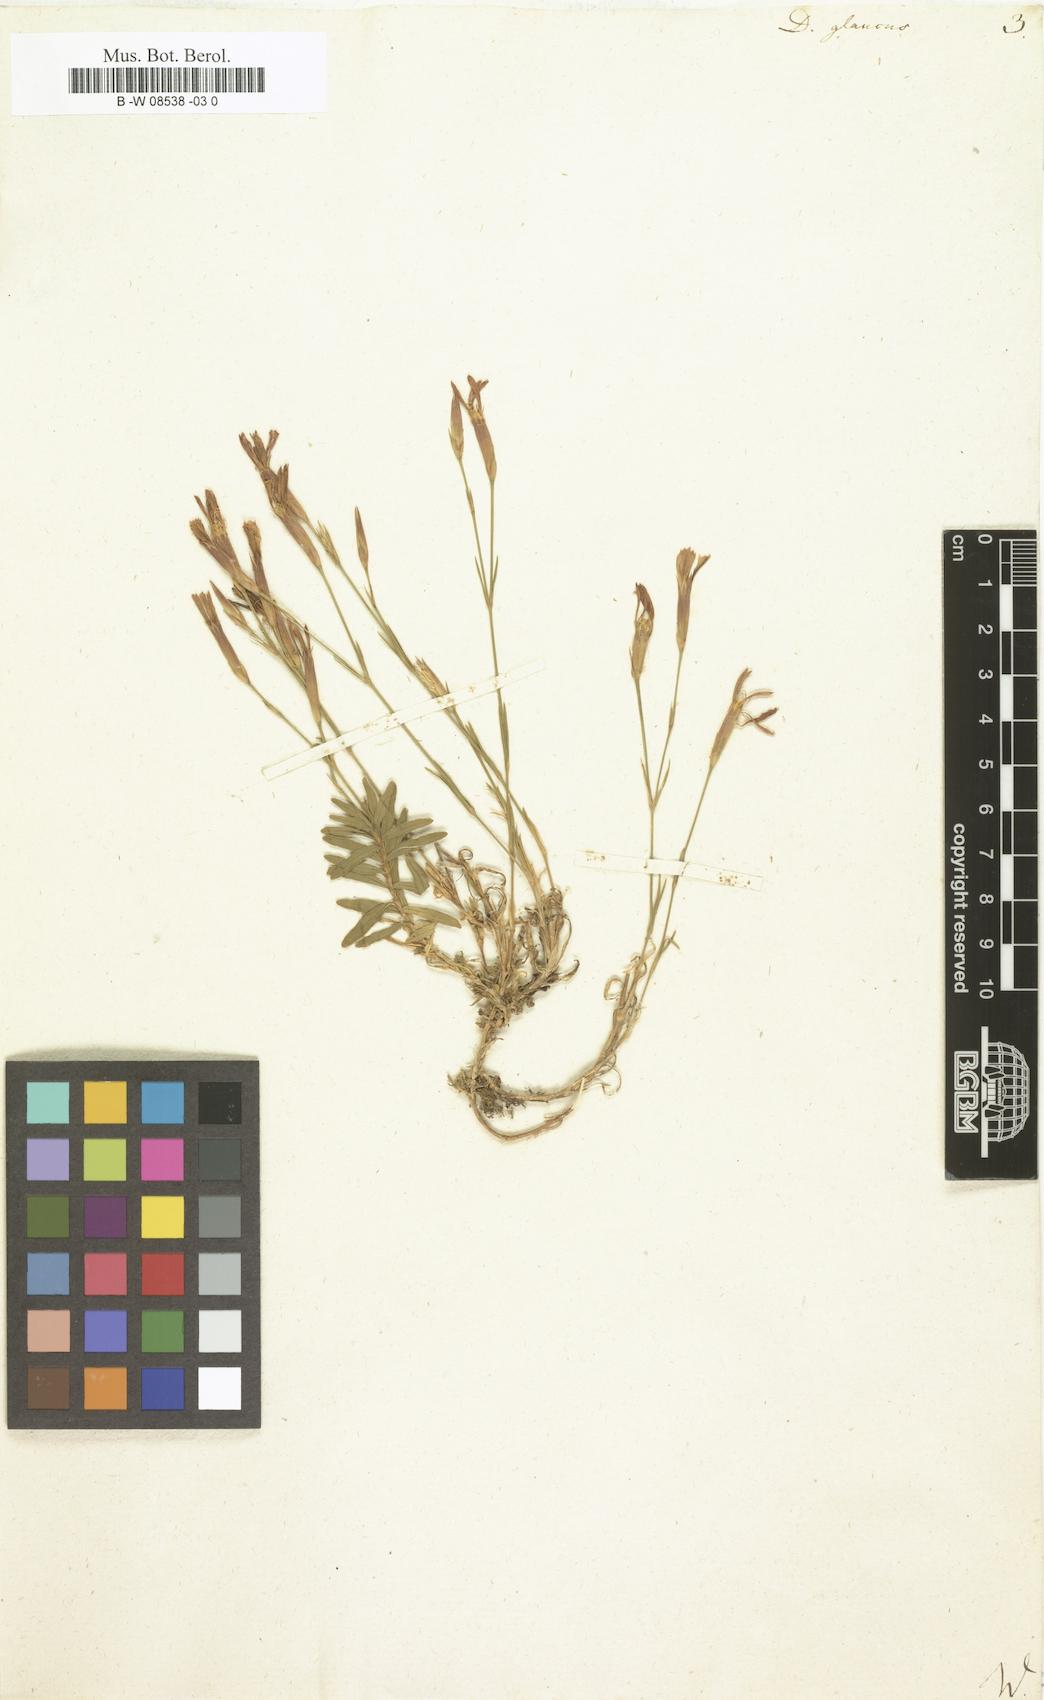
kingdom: Plantae
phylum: Tracheophyta
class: Magnoliopsida
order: Caryophyllales
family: Caryophyllaceae
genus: Dianthus
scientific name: Dianthus
